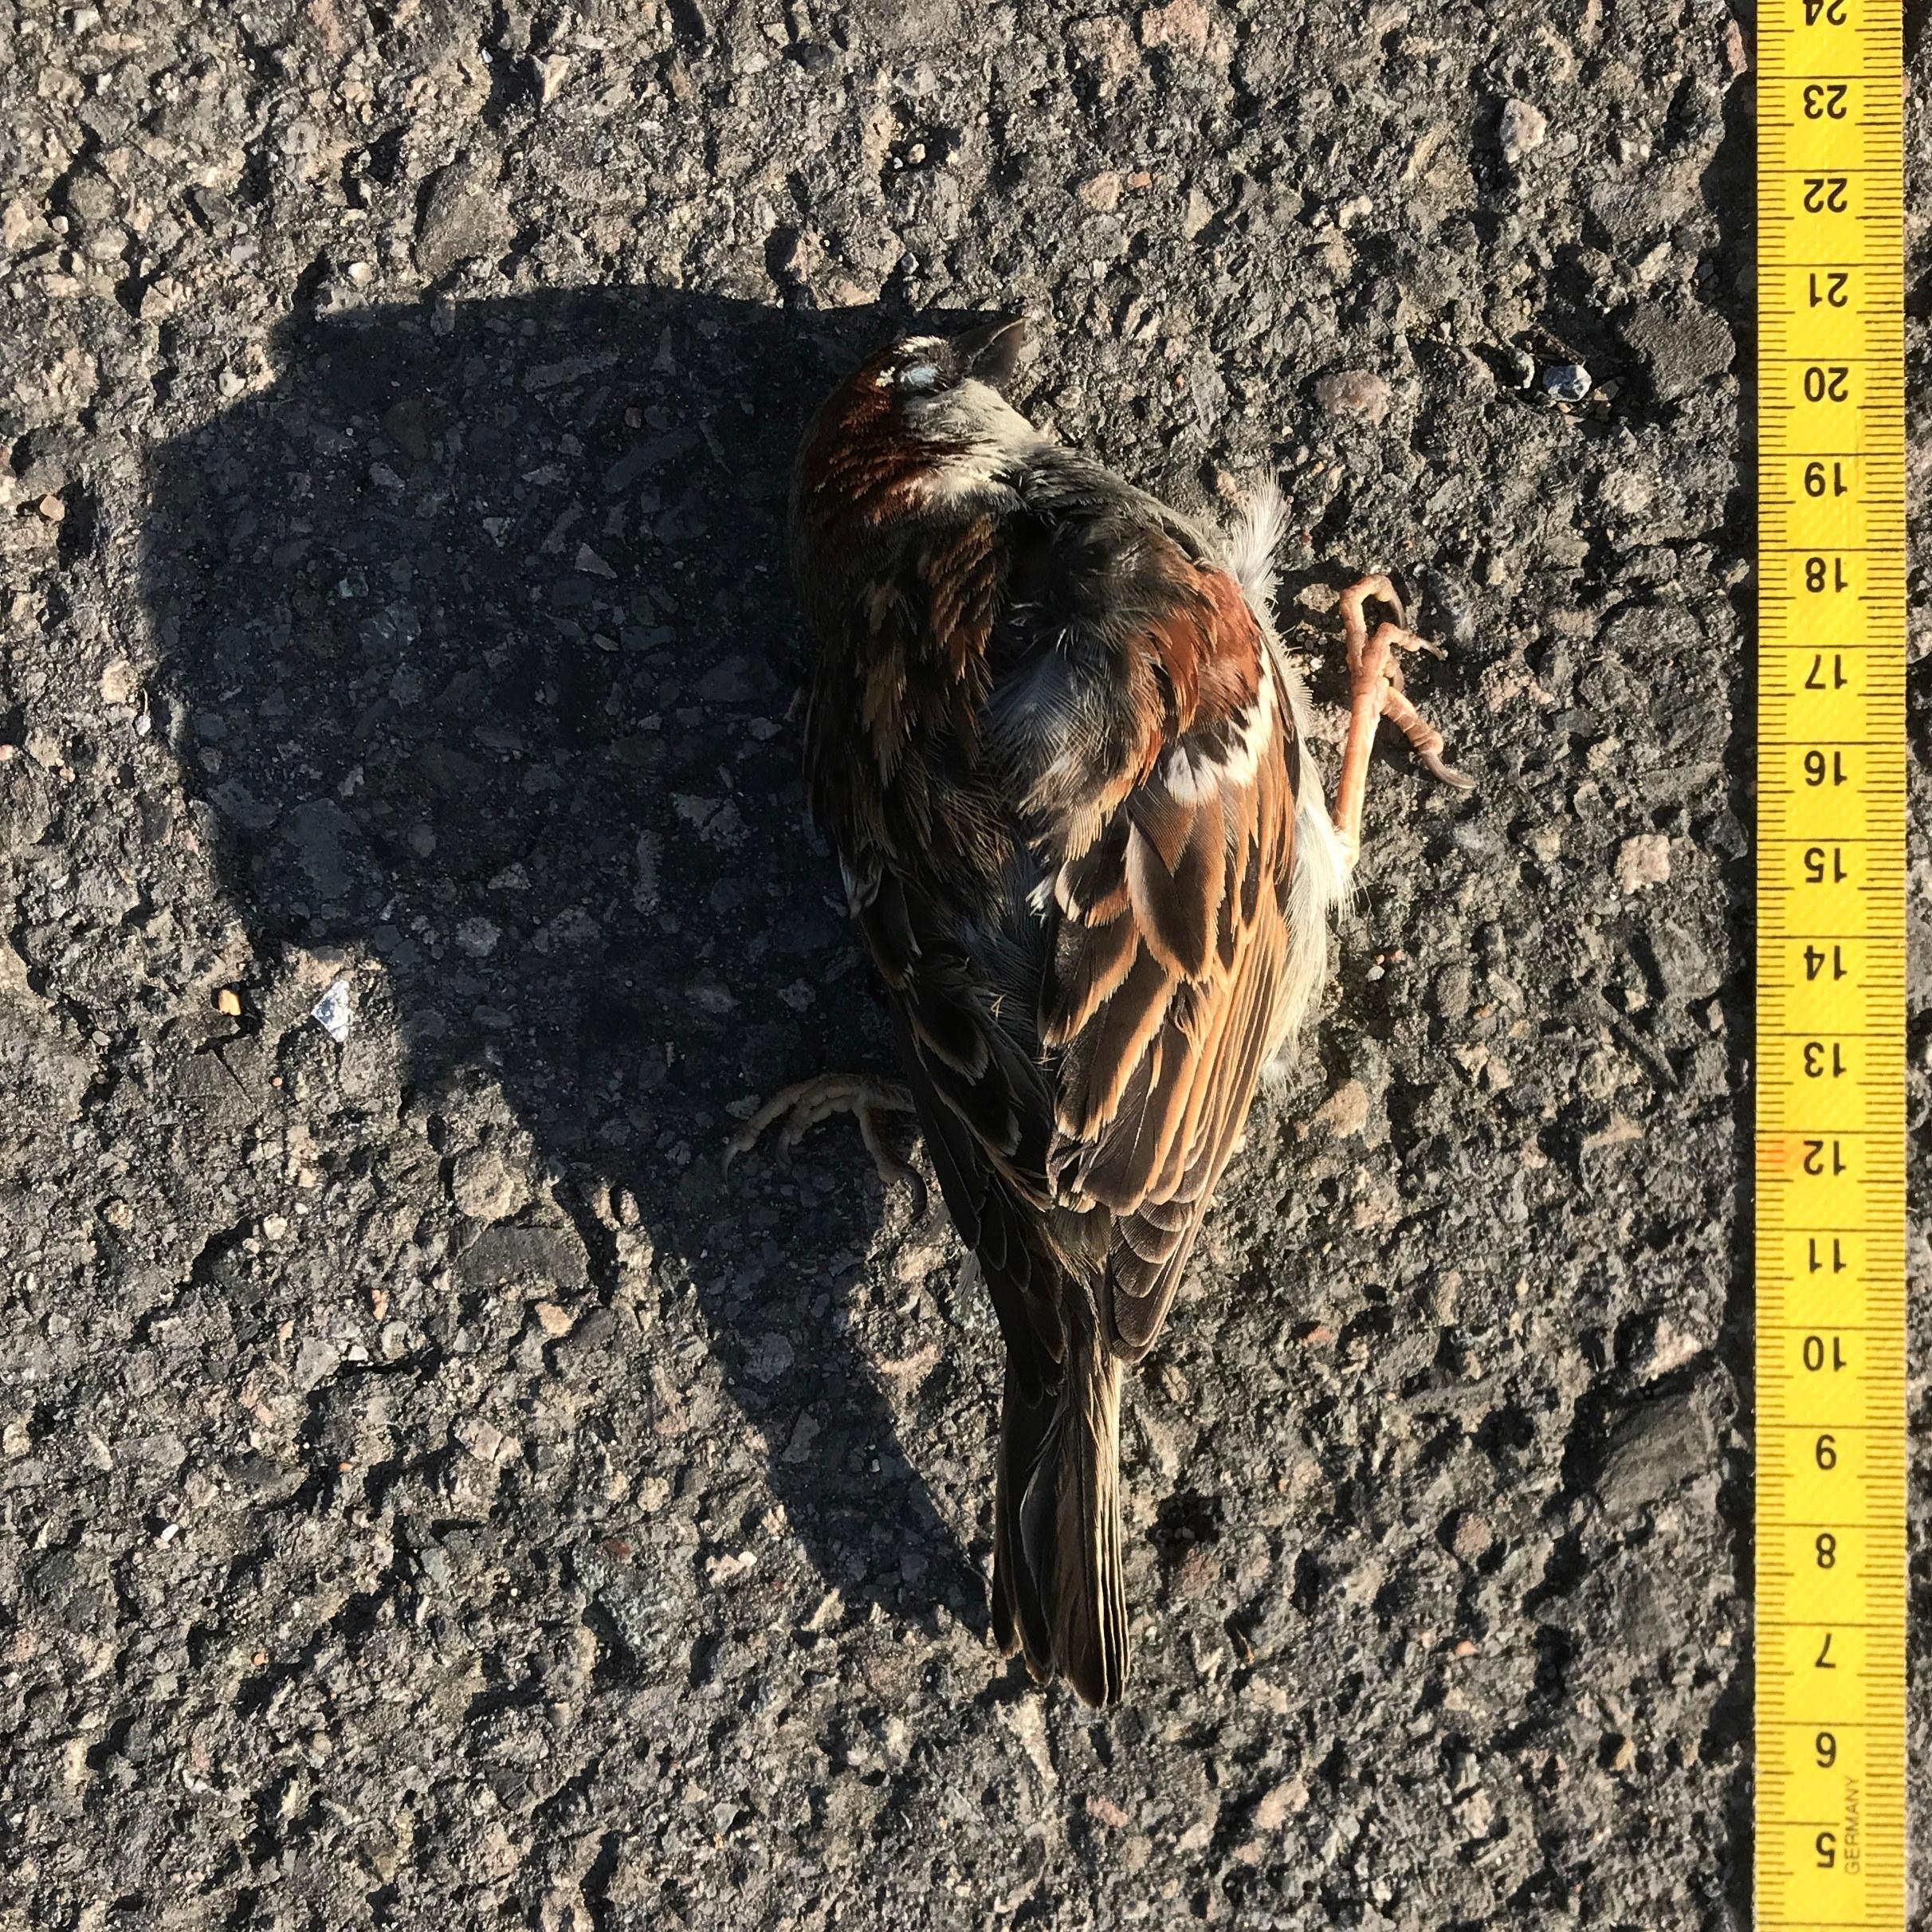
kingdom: Animalia
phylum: Chordata
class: Aves
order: Passeriformes
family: Passeridae
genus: Passer
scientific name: Passer domesticus
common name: House sparrow
